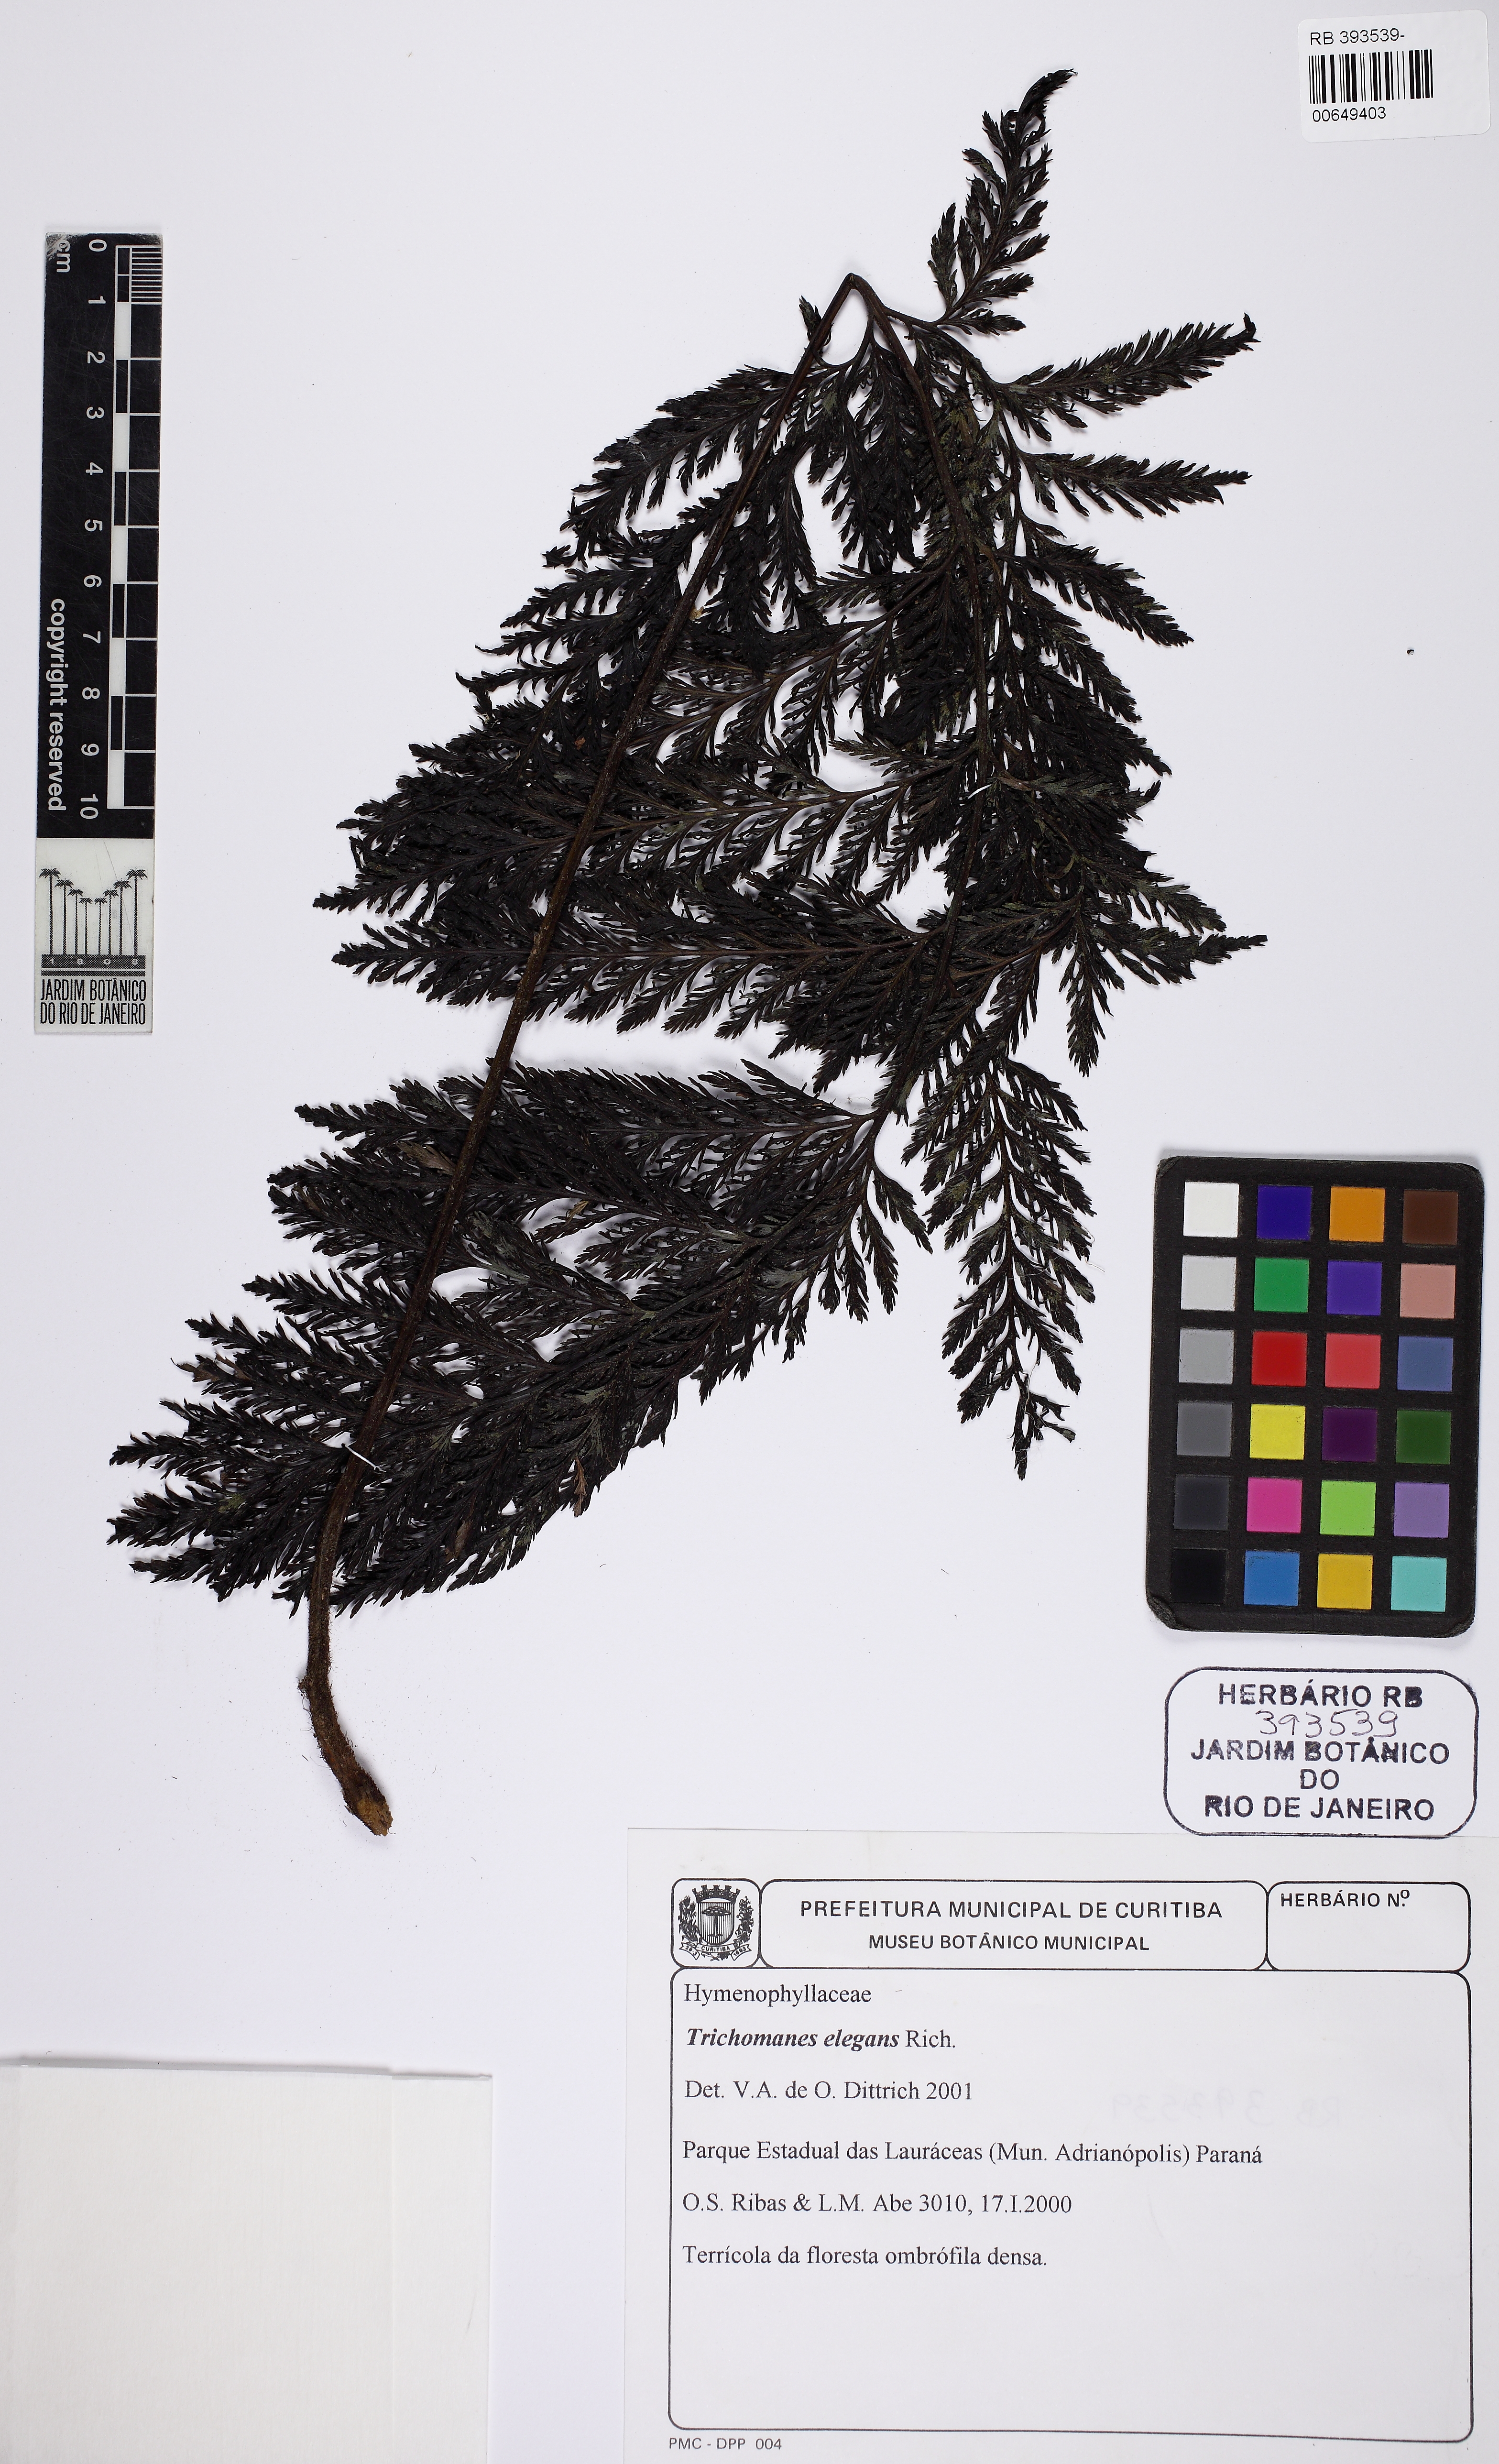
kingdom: Plantae
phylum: Tracheophyta
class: Polypodiopsida
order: Hymenophyllales
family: Hymenophyllaceae
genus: Trichomanes
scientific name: Trichomanes elegans
